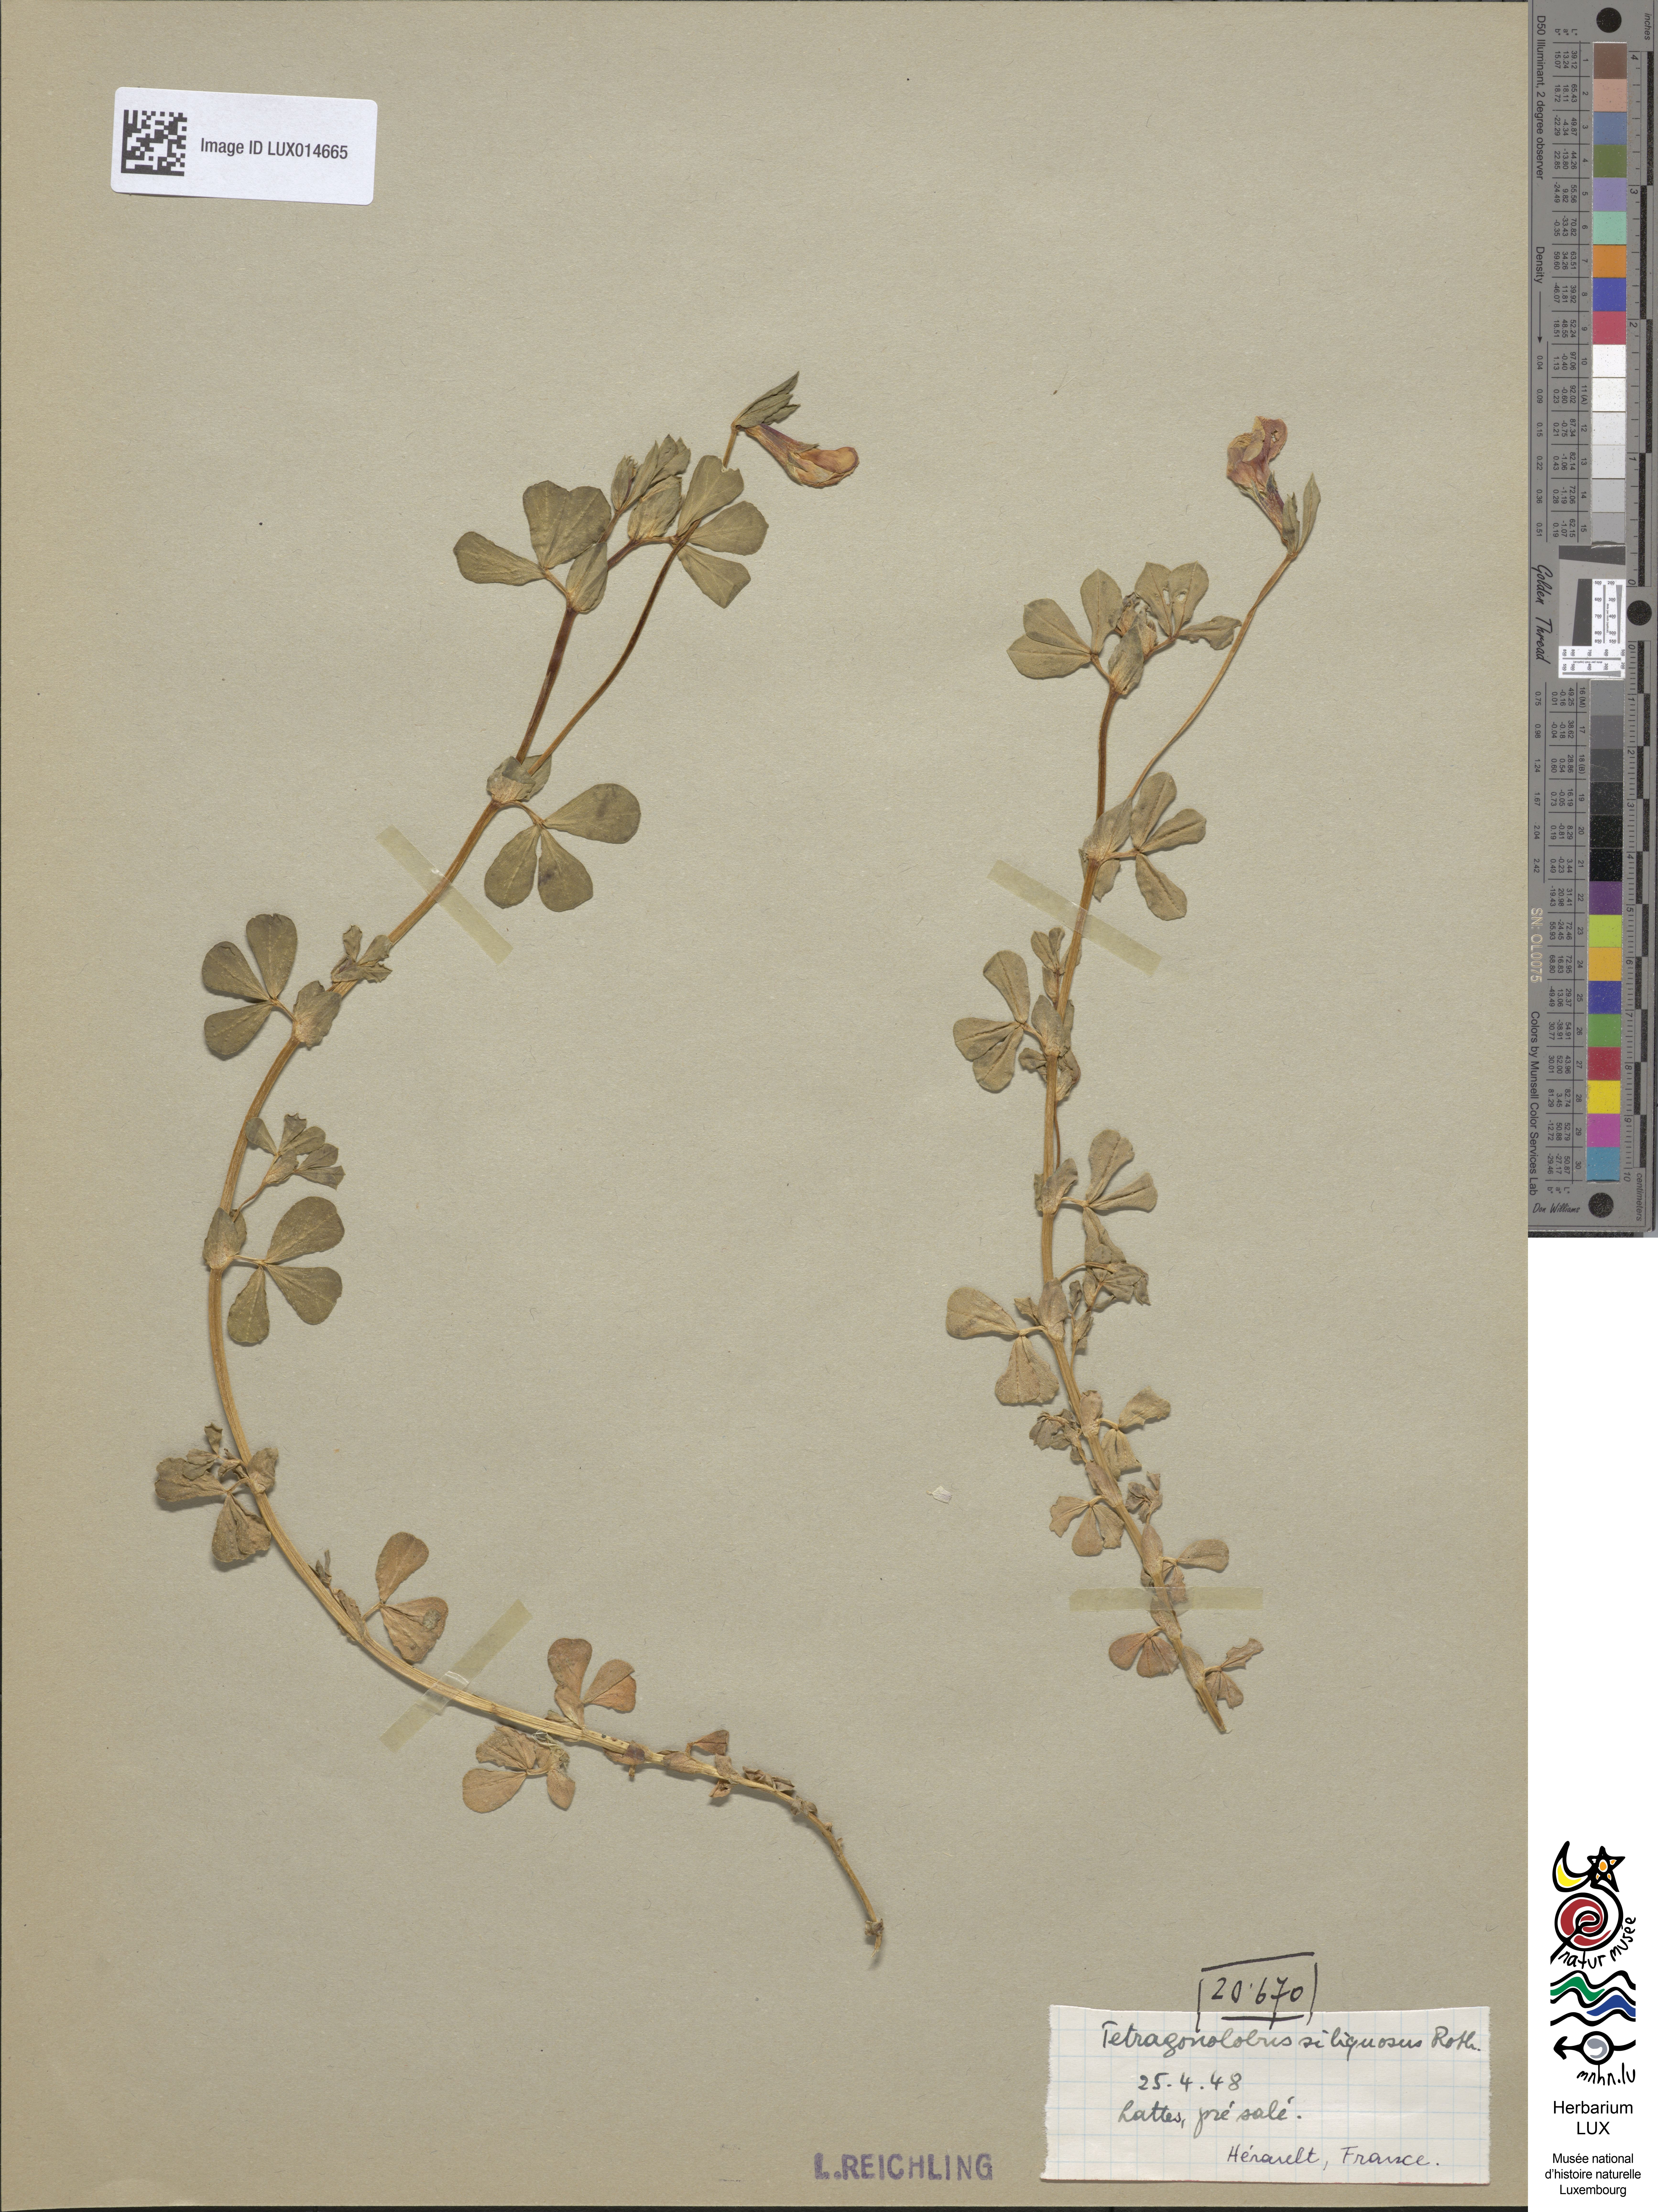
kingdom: Plantae
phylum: Tracheophyta
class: Magnoliopsida
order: Fabales
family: Fabaceae
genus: Lotus
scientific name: Lotus maritimus
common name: Dragon's-teeth
